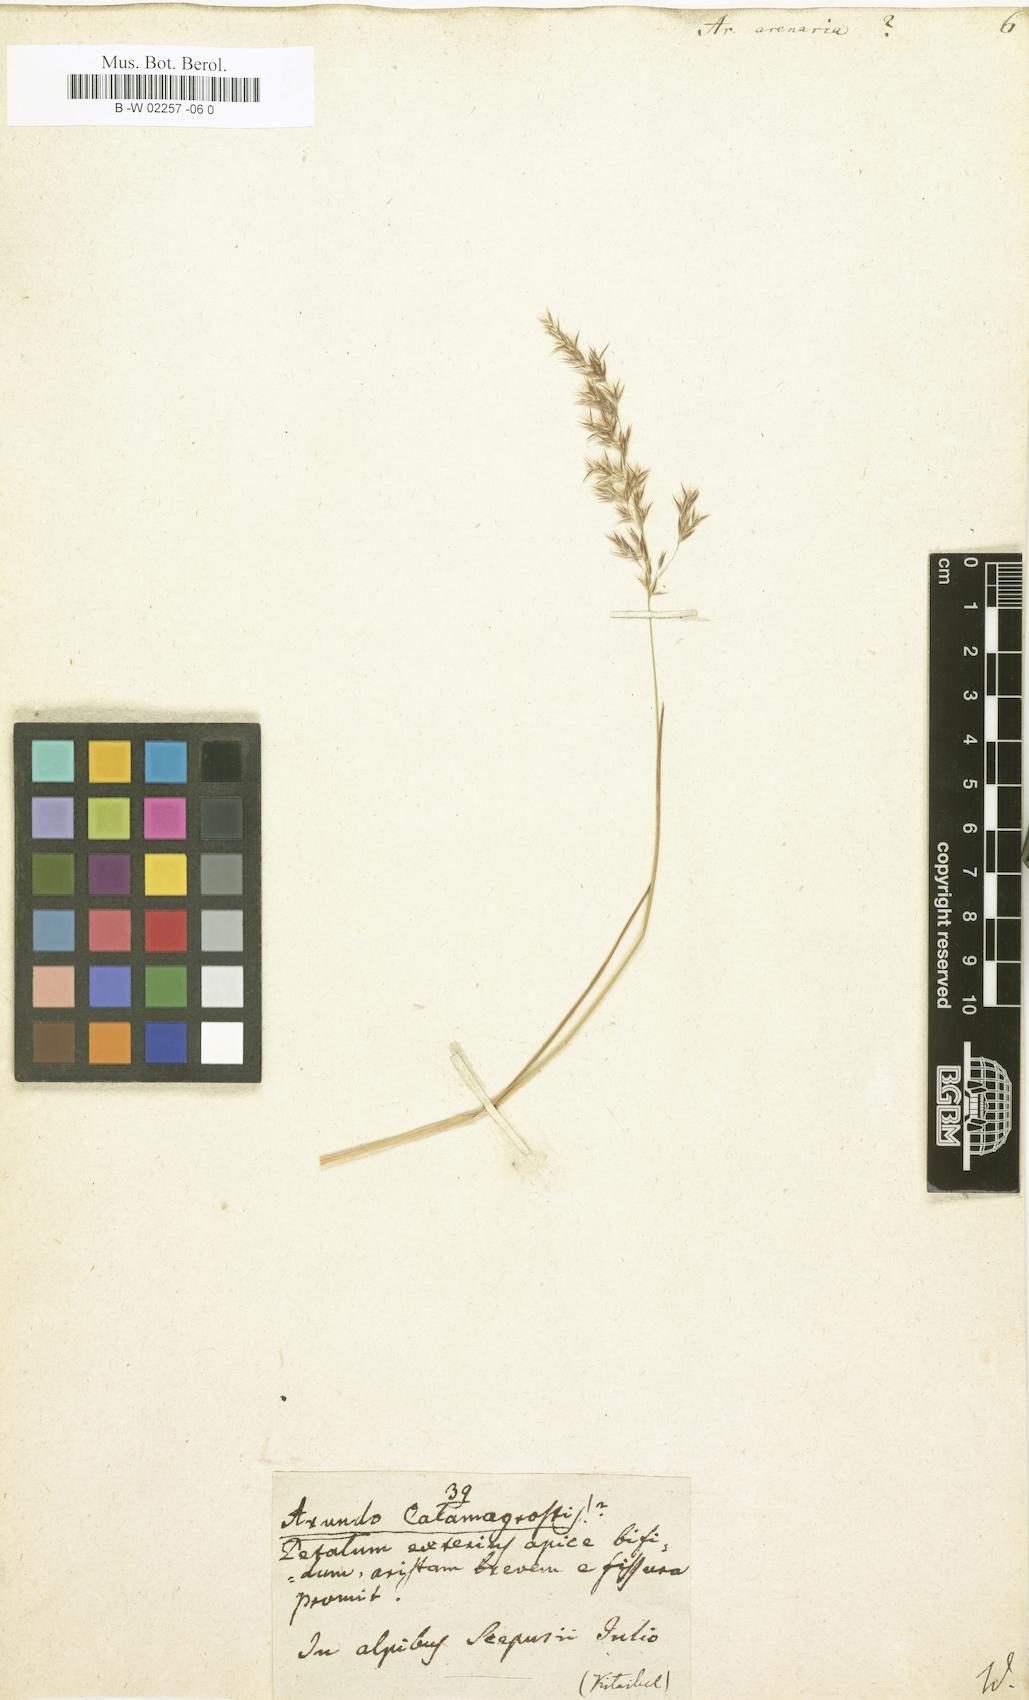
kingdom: Plantae
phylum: Tracheophyta
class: Liliopsida
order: Poales
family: Poaceae
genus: Arundo
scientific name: Arundo arenaria
